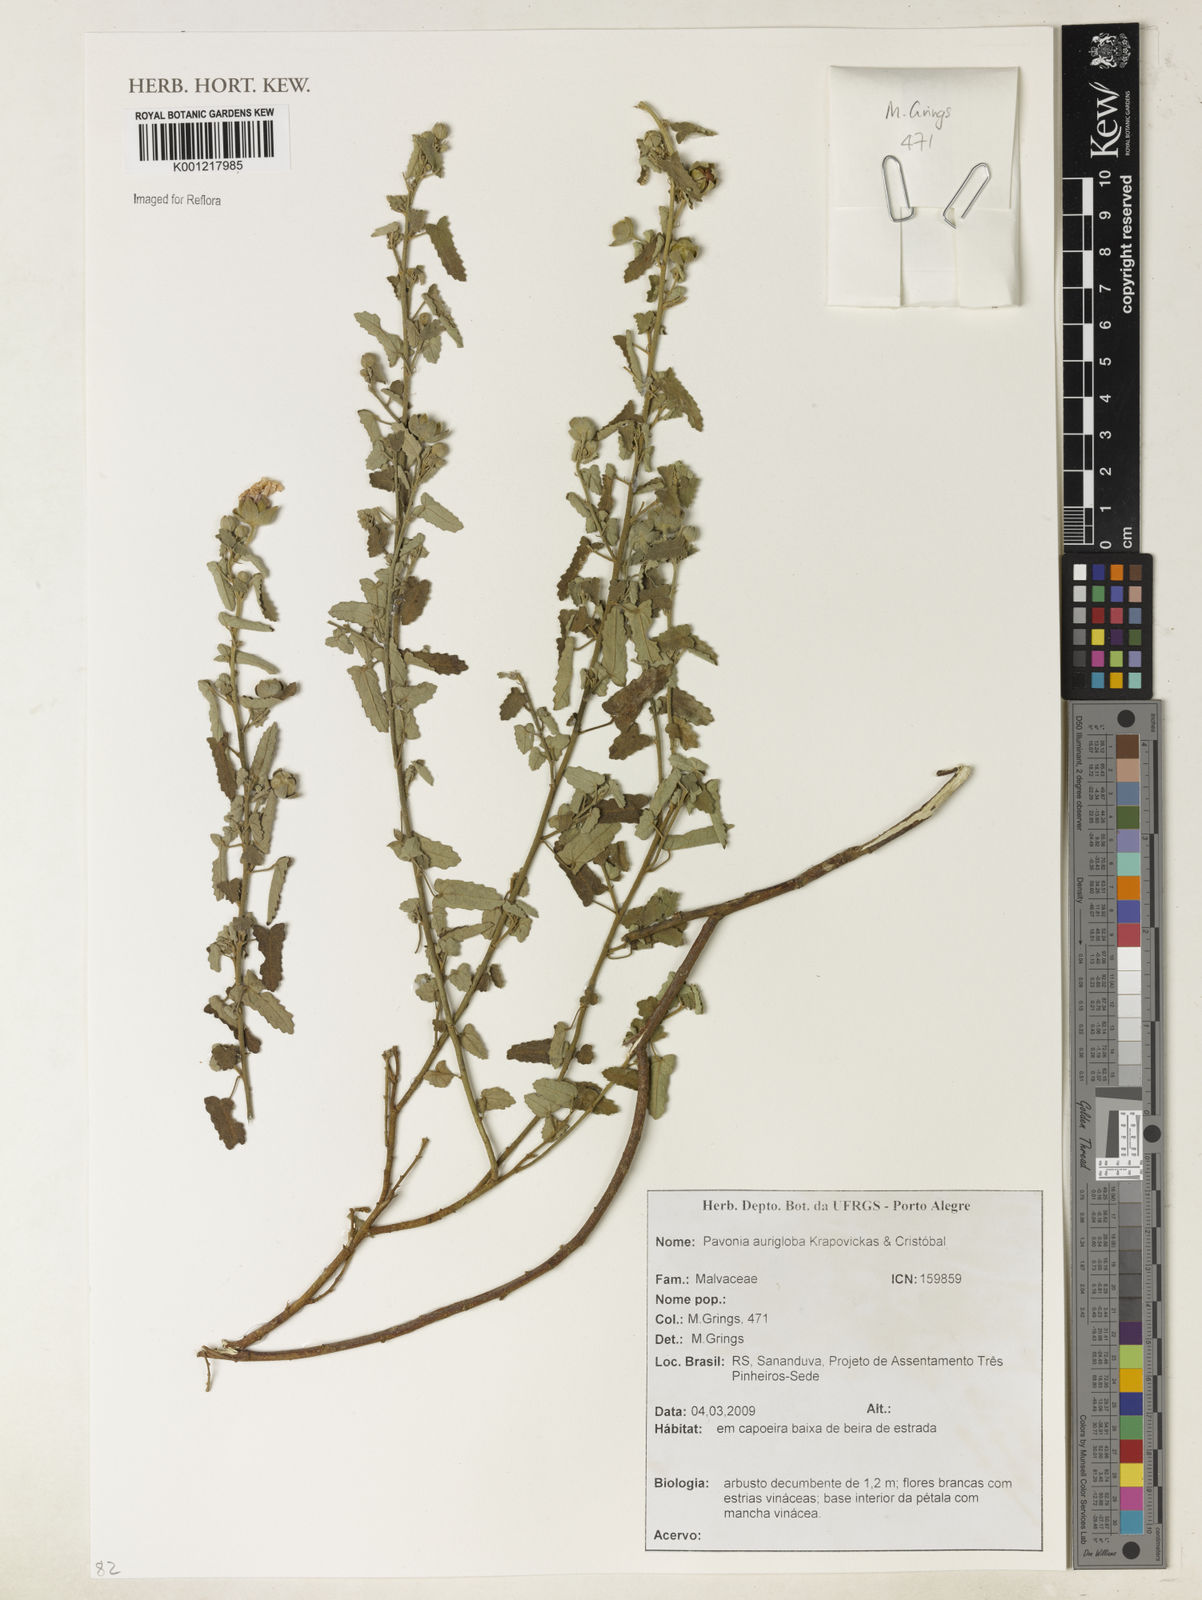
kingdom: Plantae
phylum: Tracheophyta
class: Magnoliopsida
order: Malvales
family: Malvaceae
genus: Pavonia
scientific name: Pavonia
